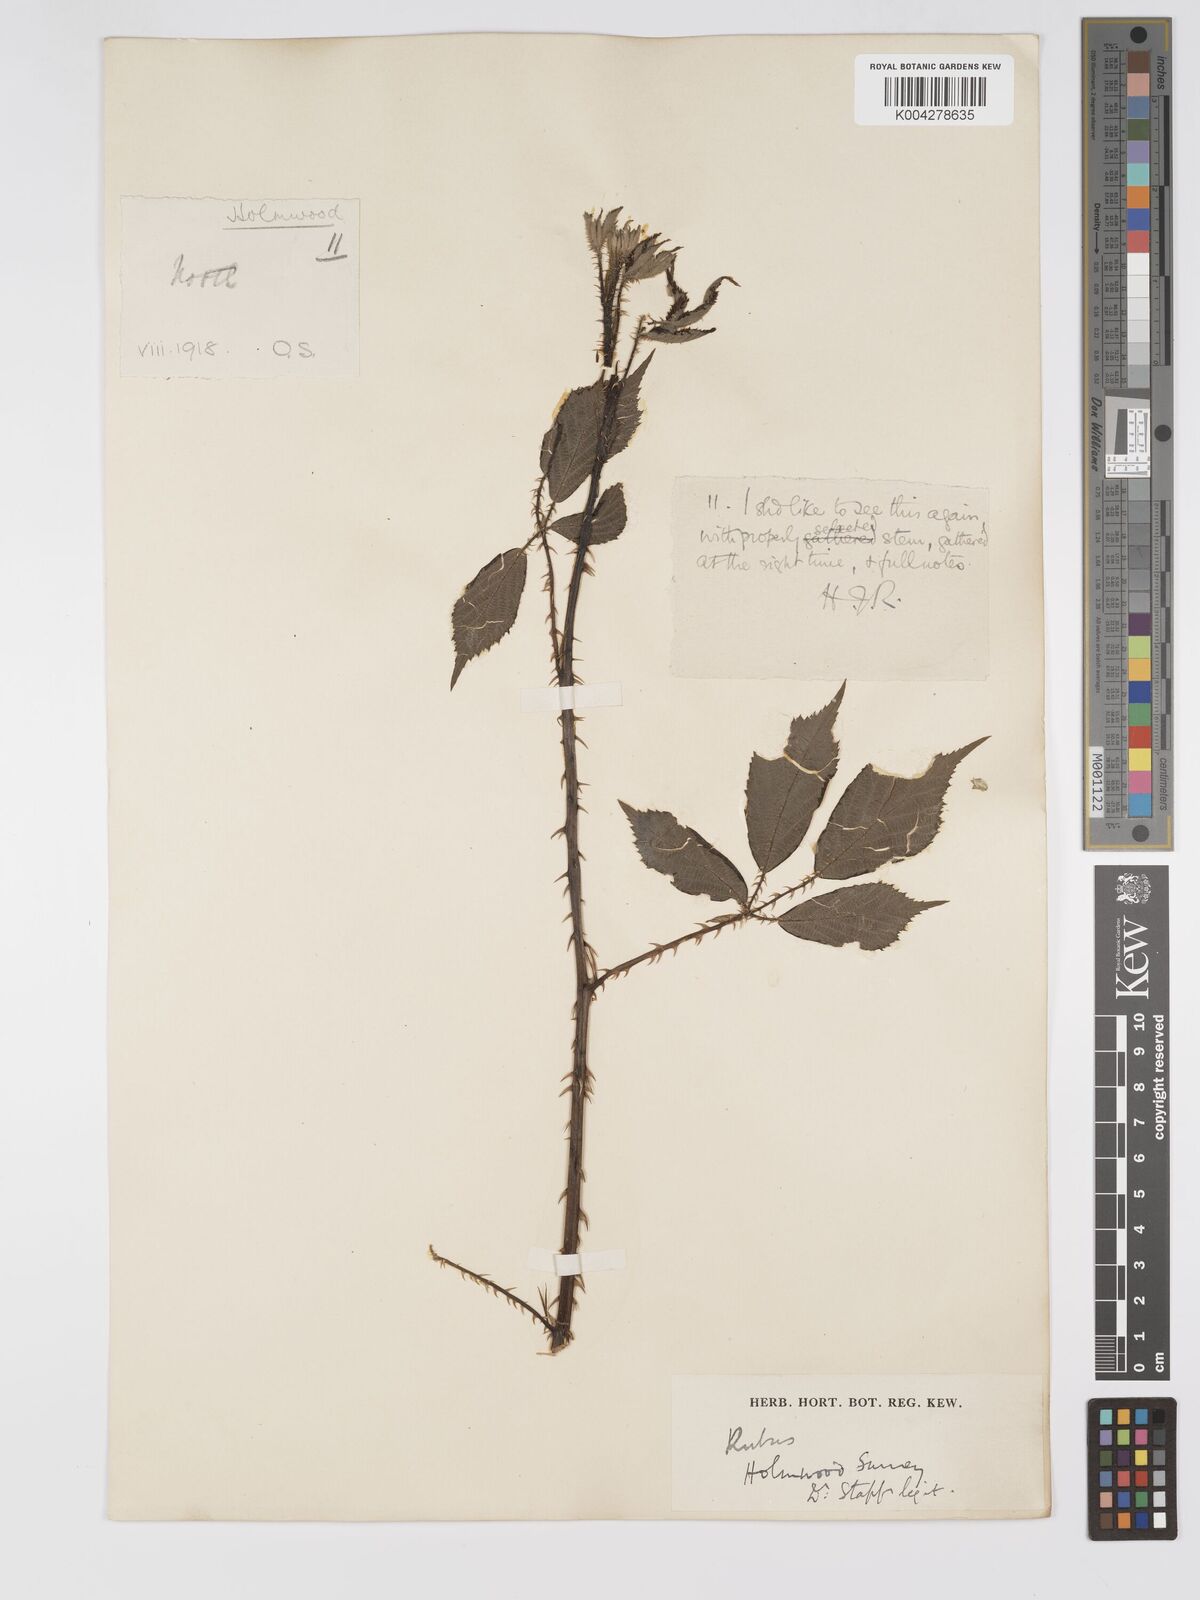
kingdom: Plantae
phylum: Tracheophyta
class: Magnoliopsida
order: Rosales
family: Rosaceae
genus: Rubus
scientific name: Rubus ahenifolius
